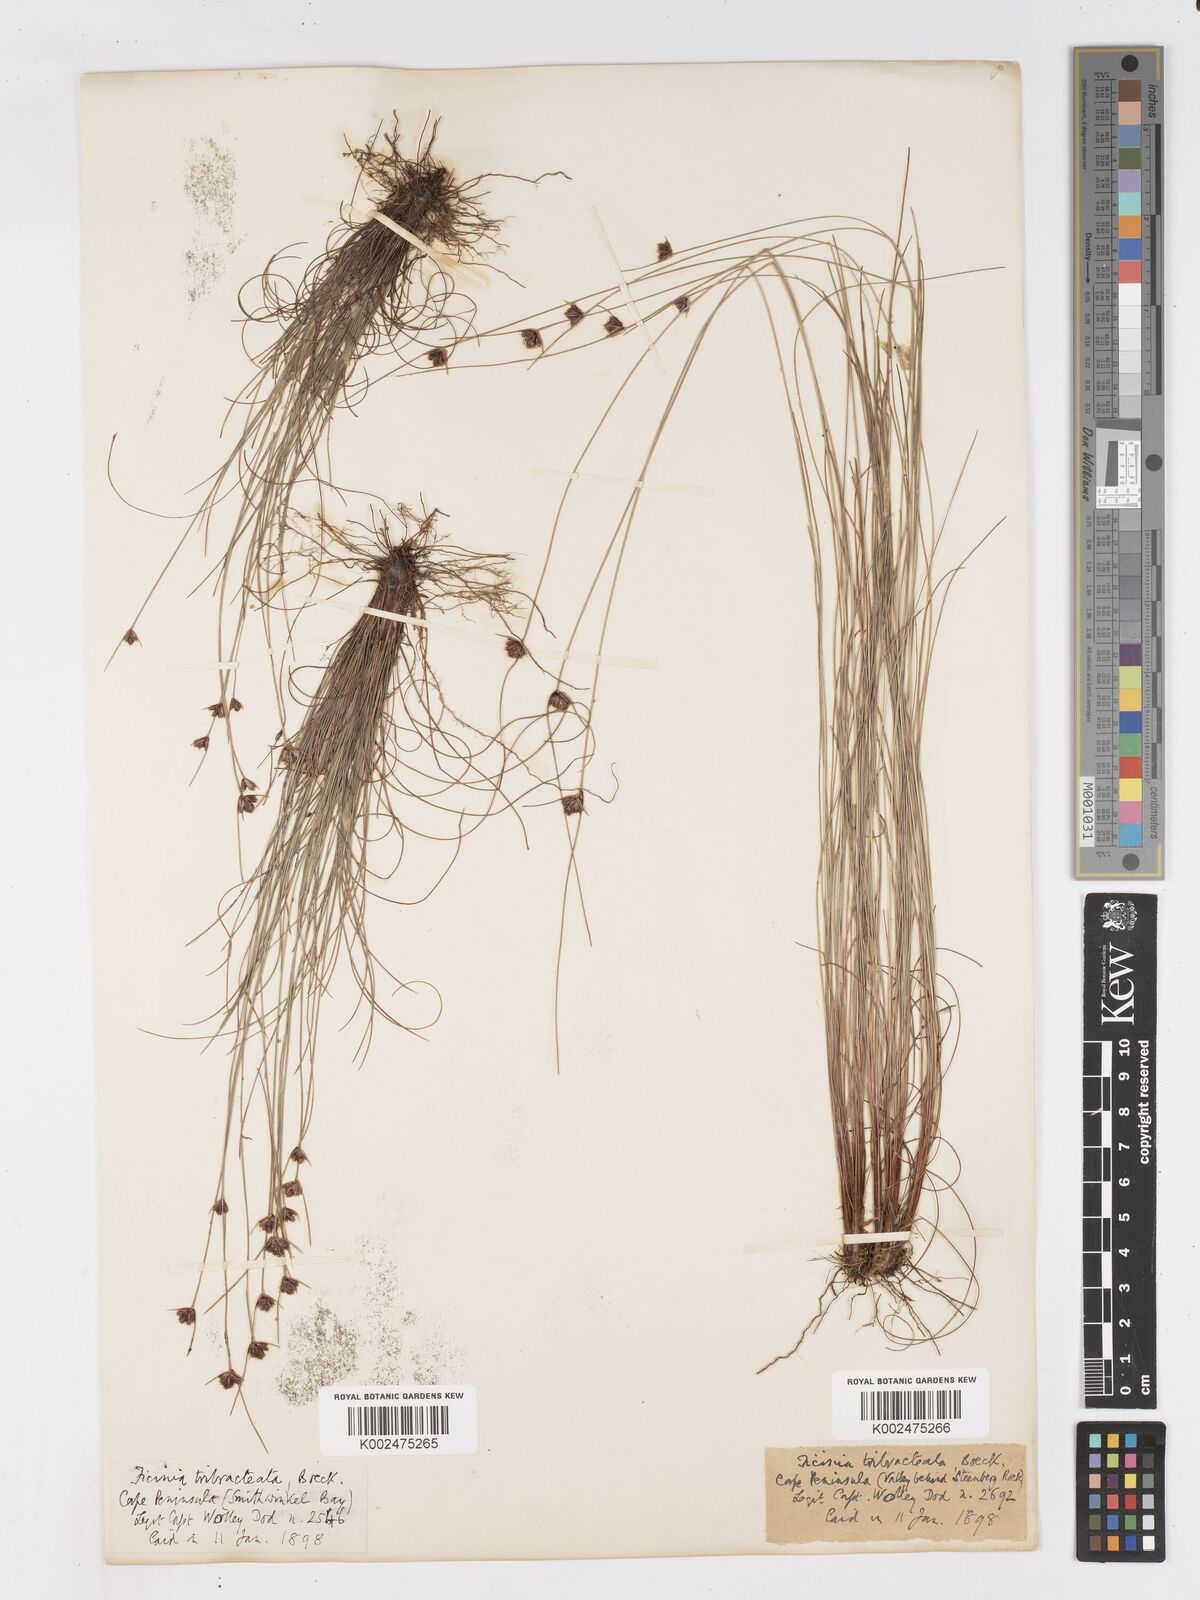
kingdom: Plantae
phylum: Tracheophyta
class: Liliopsida
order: Poales
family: Cyperaceae
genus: Ficinia
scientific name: Ficinia tristachya
